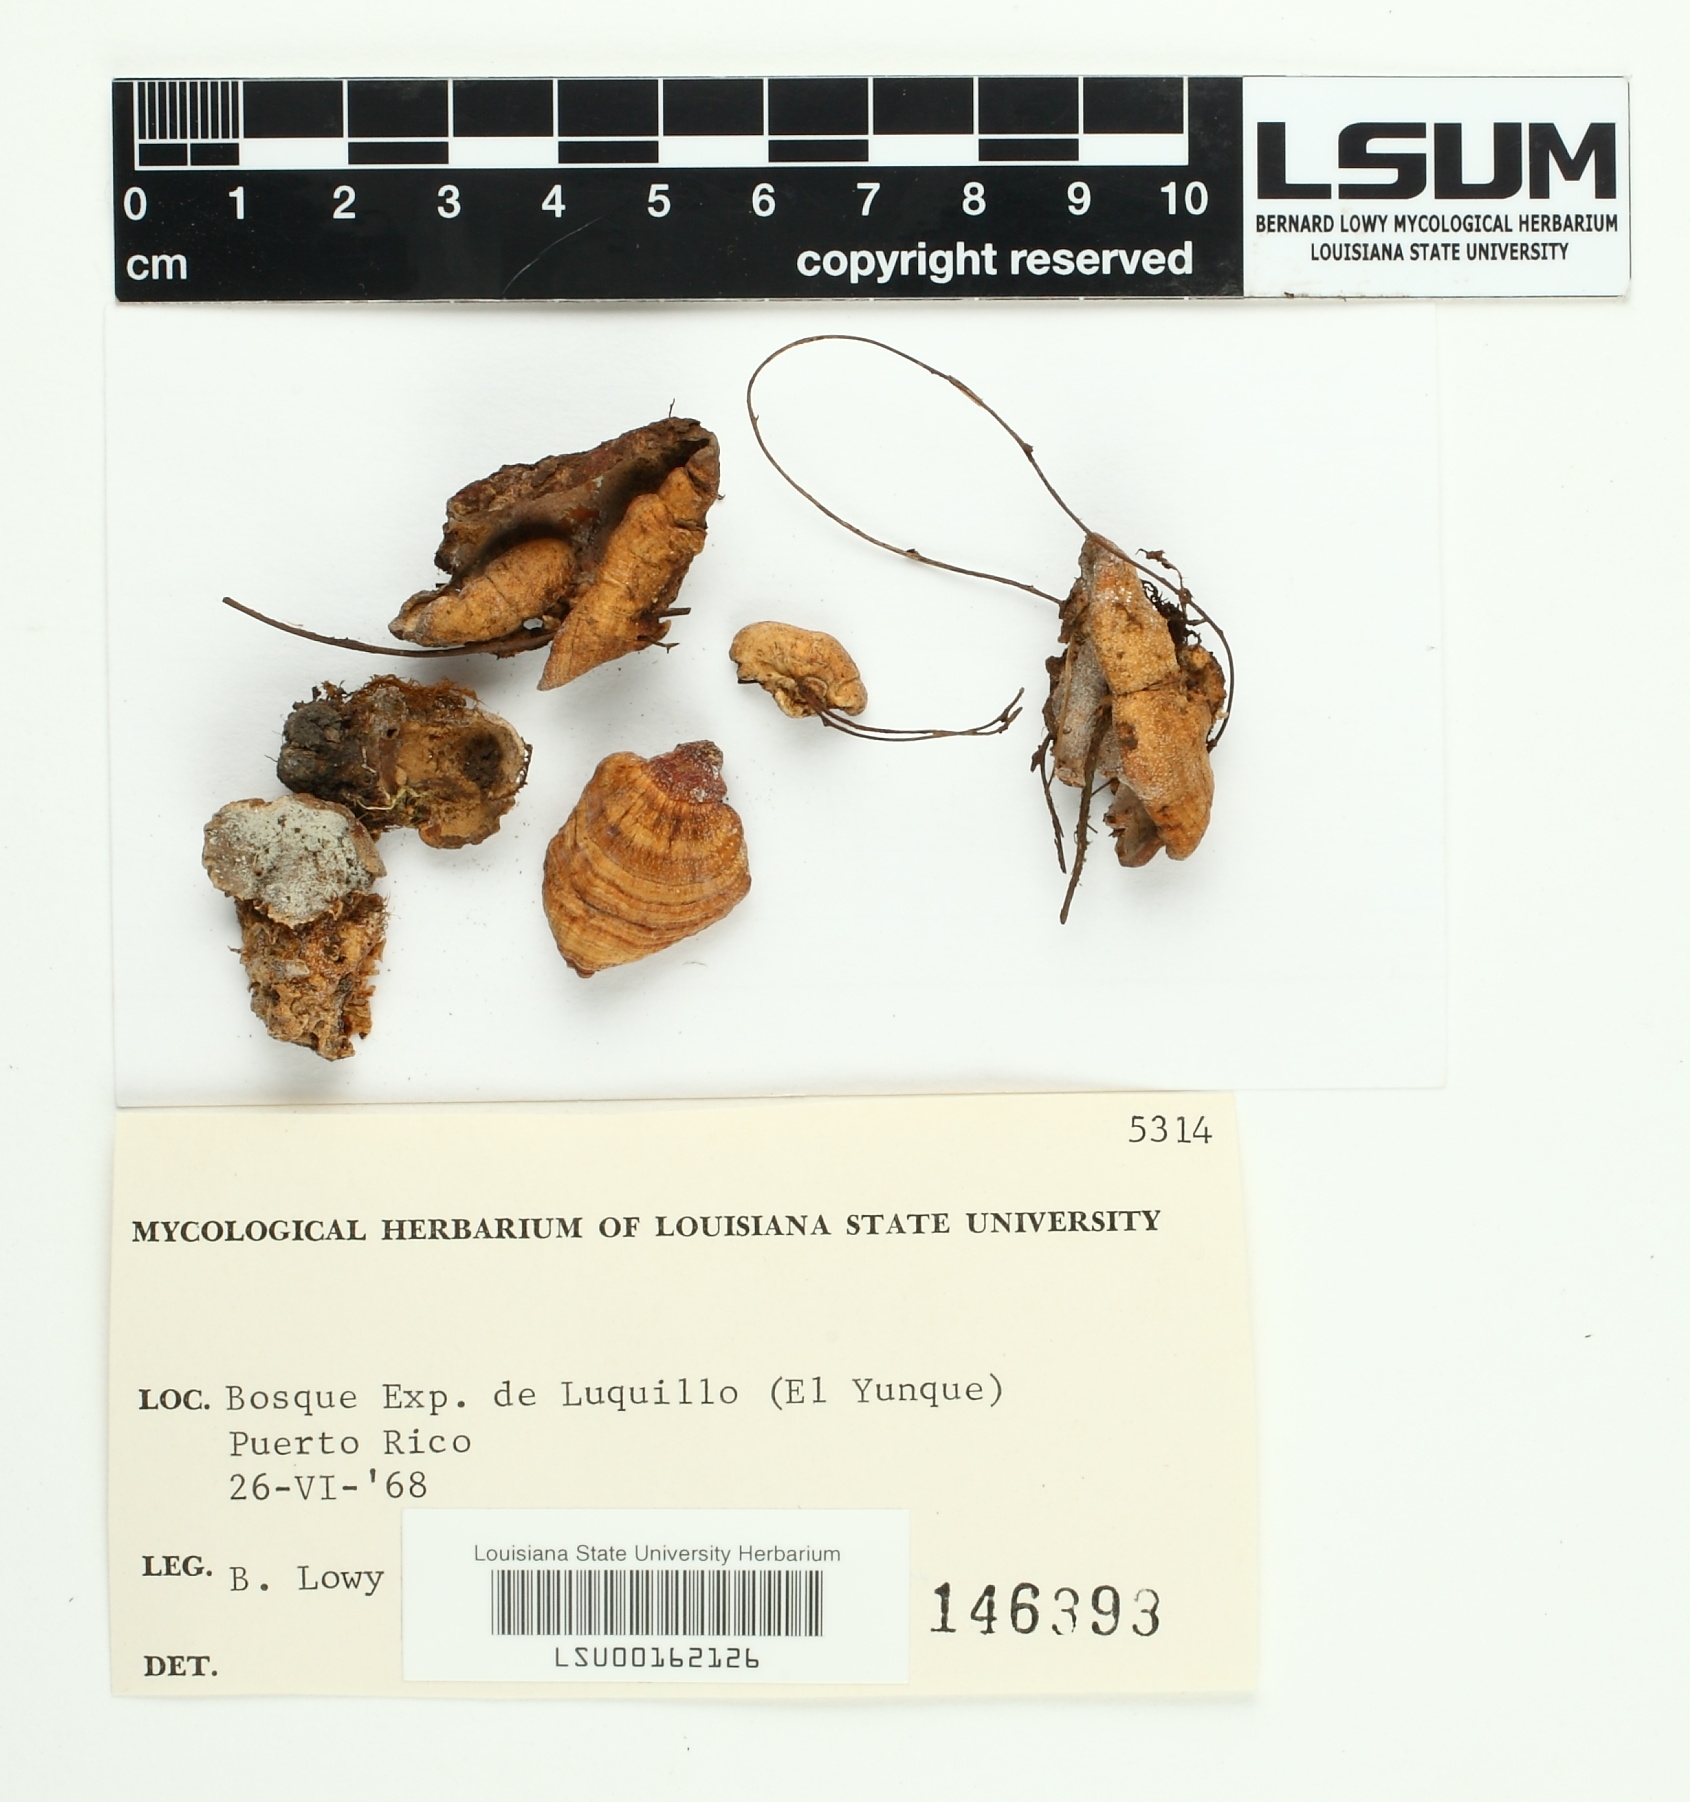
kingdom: Fungi
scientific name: Fungi
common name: Fungi
